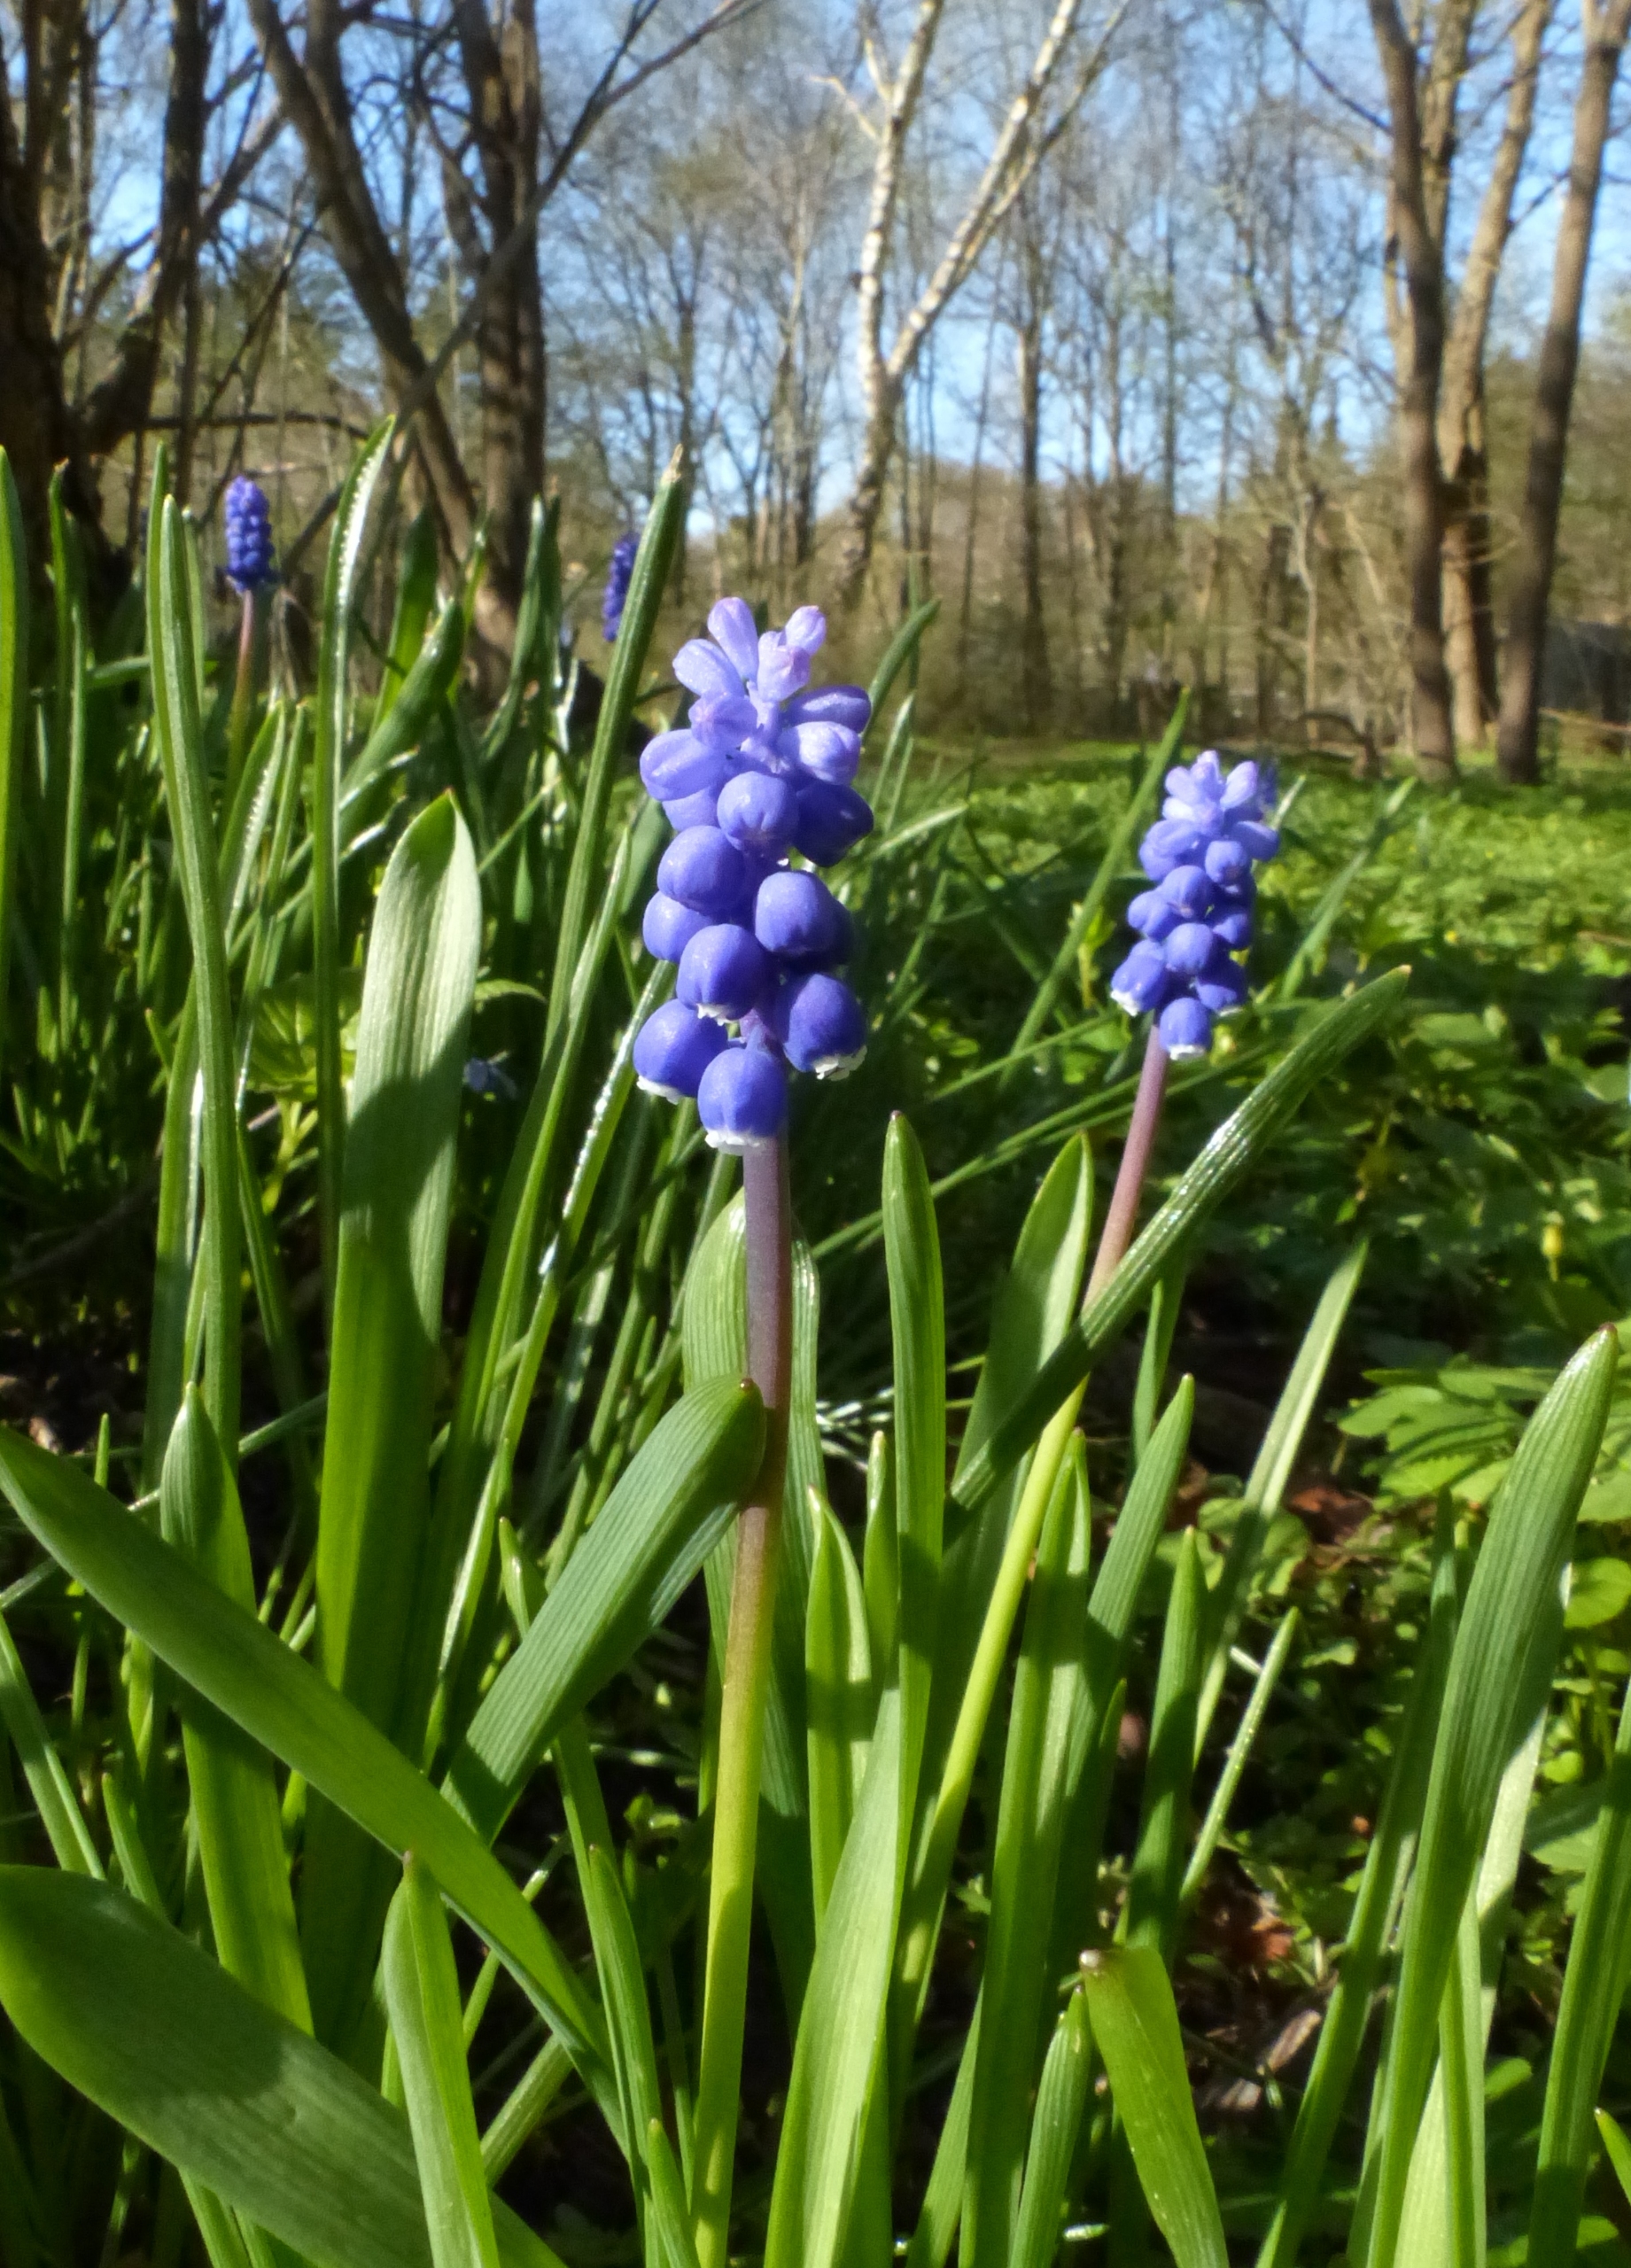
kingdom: Plantae
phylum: Tracheophyta
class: Liliopsida
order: Asparagales
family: Asparagaceae
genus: Muscari
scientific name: Muscari botryoides
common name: Perlehyacint
